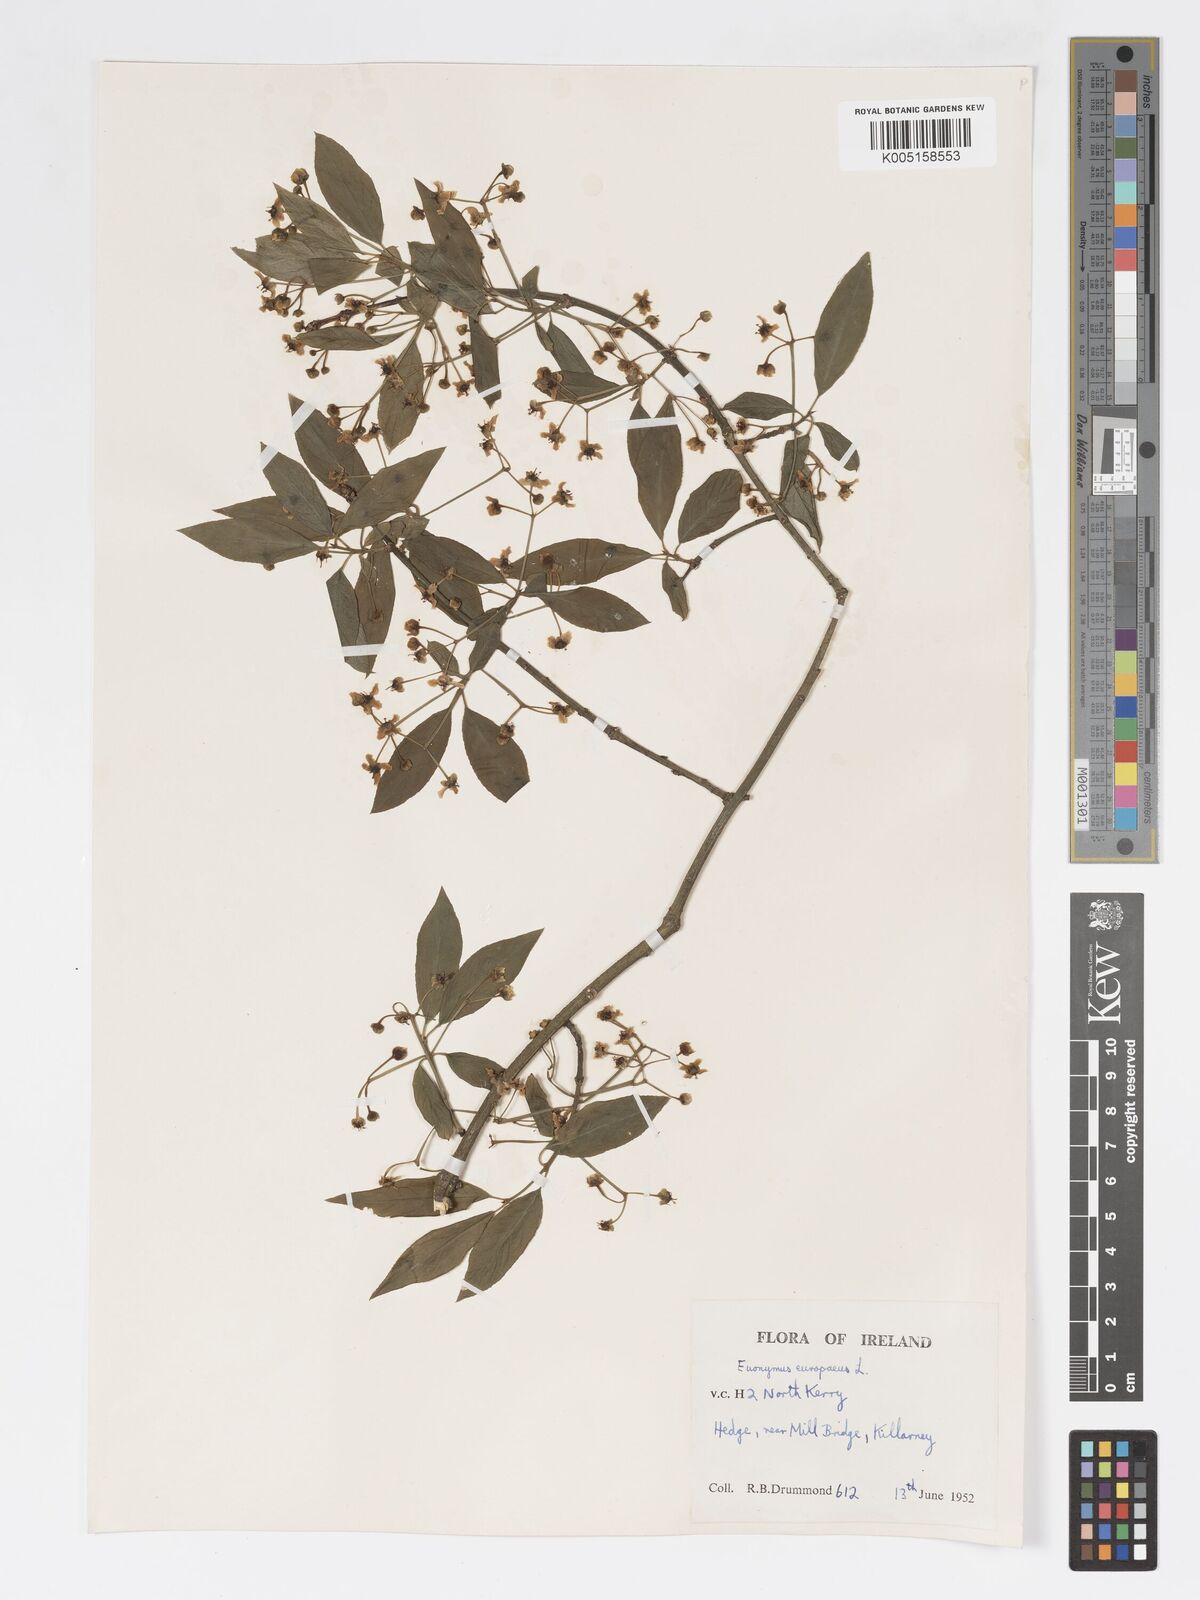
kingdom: Plantae
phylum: Tracheophyta
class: Magnoliopsida
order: Celastrales
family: Celastraceae
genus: Euonymus
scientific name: Euonymus europaeus
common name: Spindle
